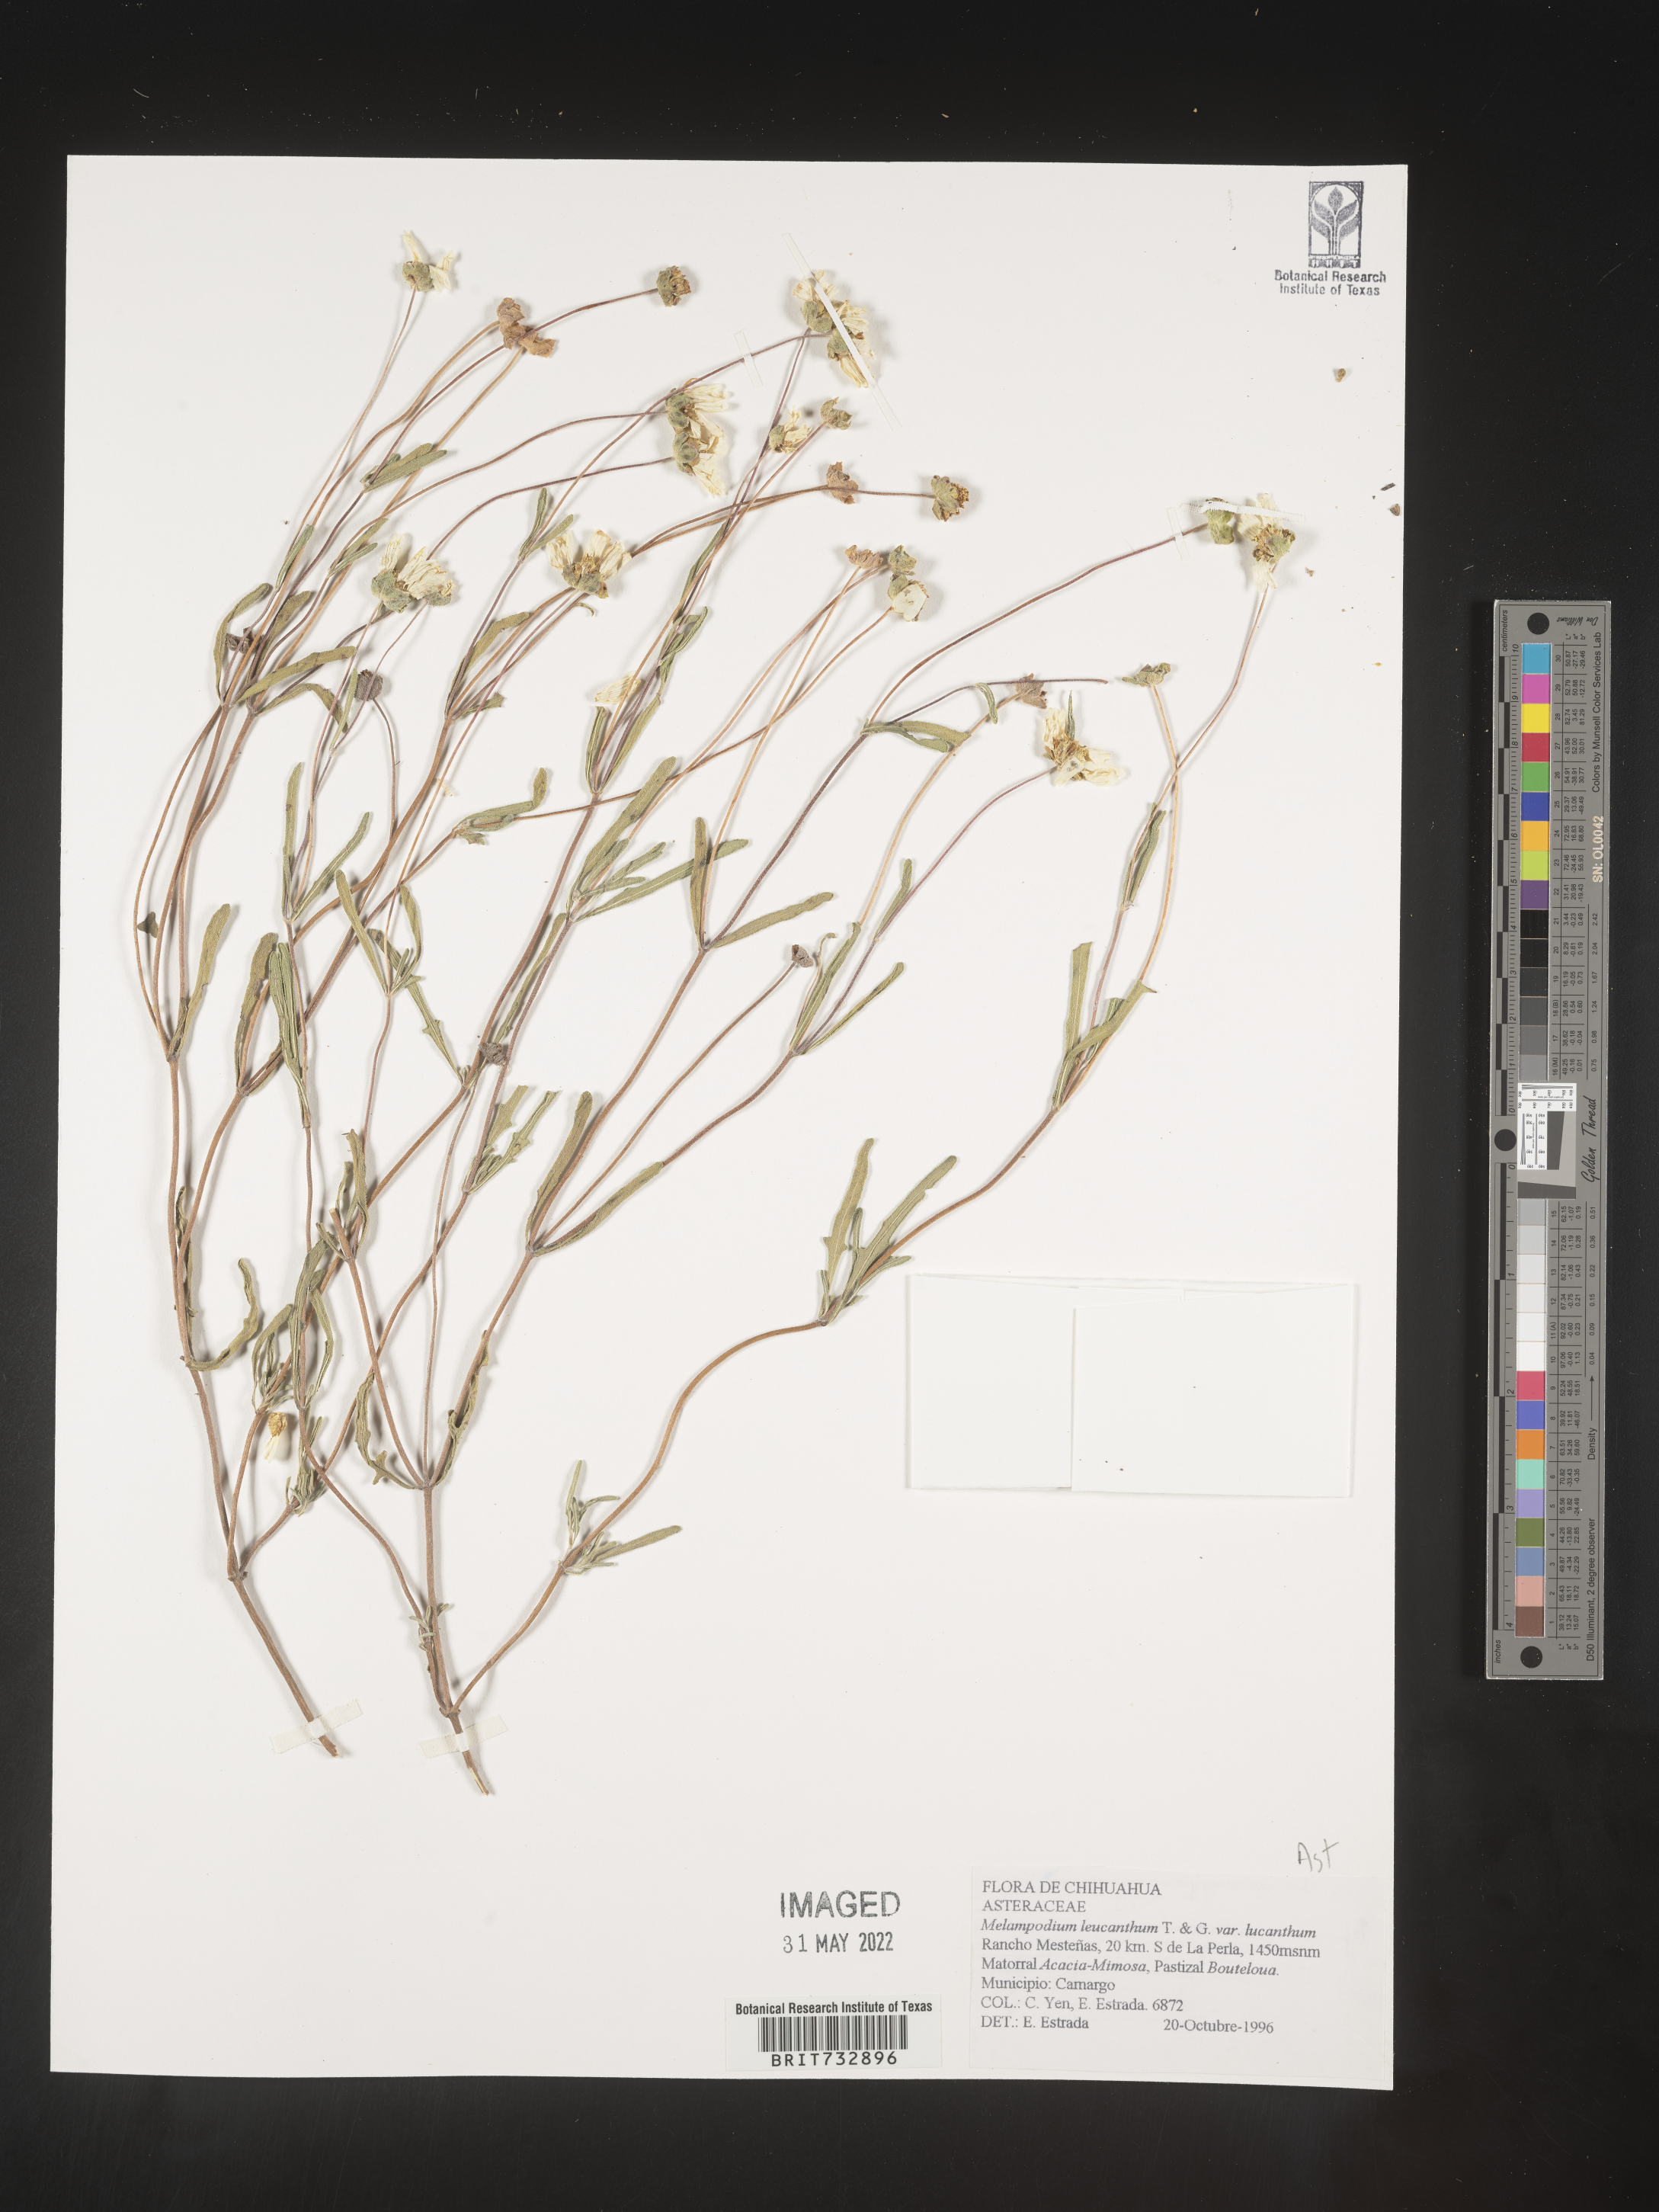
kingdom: Plantae
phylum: Tracheophyta
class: Magnoliopsida
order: Asterales
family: Asteraceae
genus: Melampodium
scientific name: Melampodium
